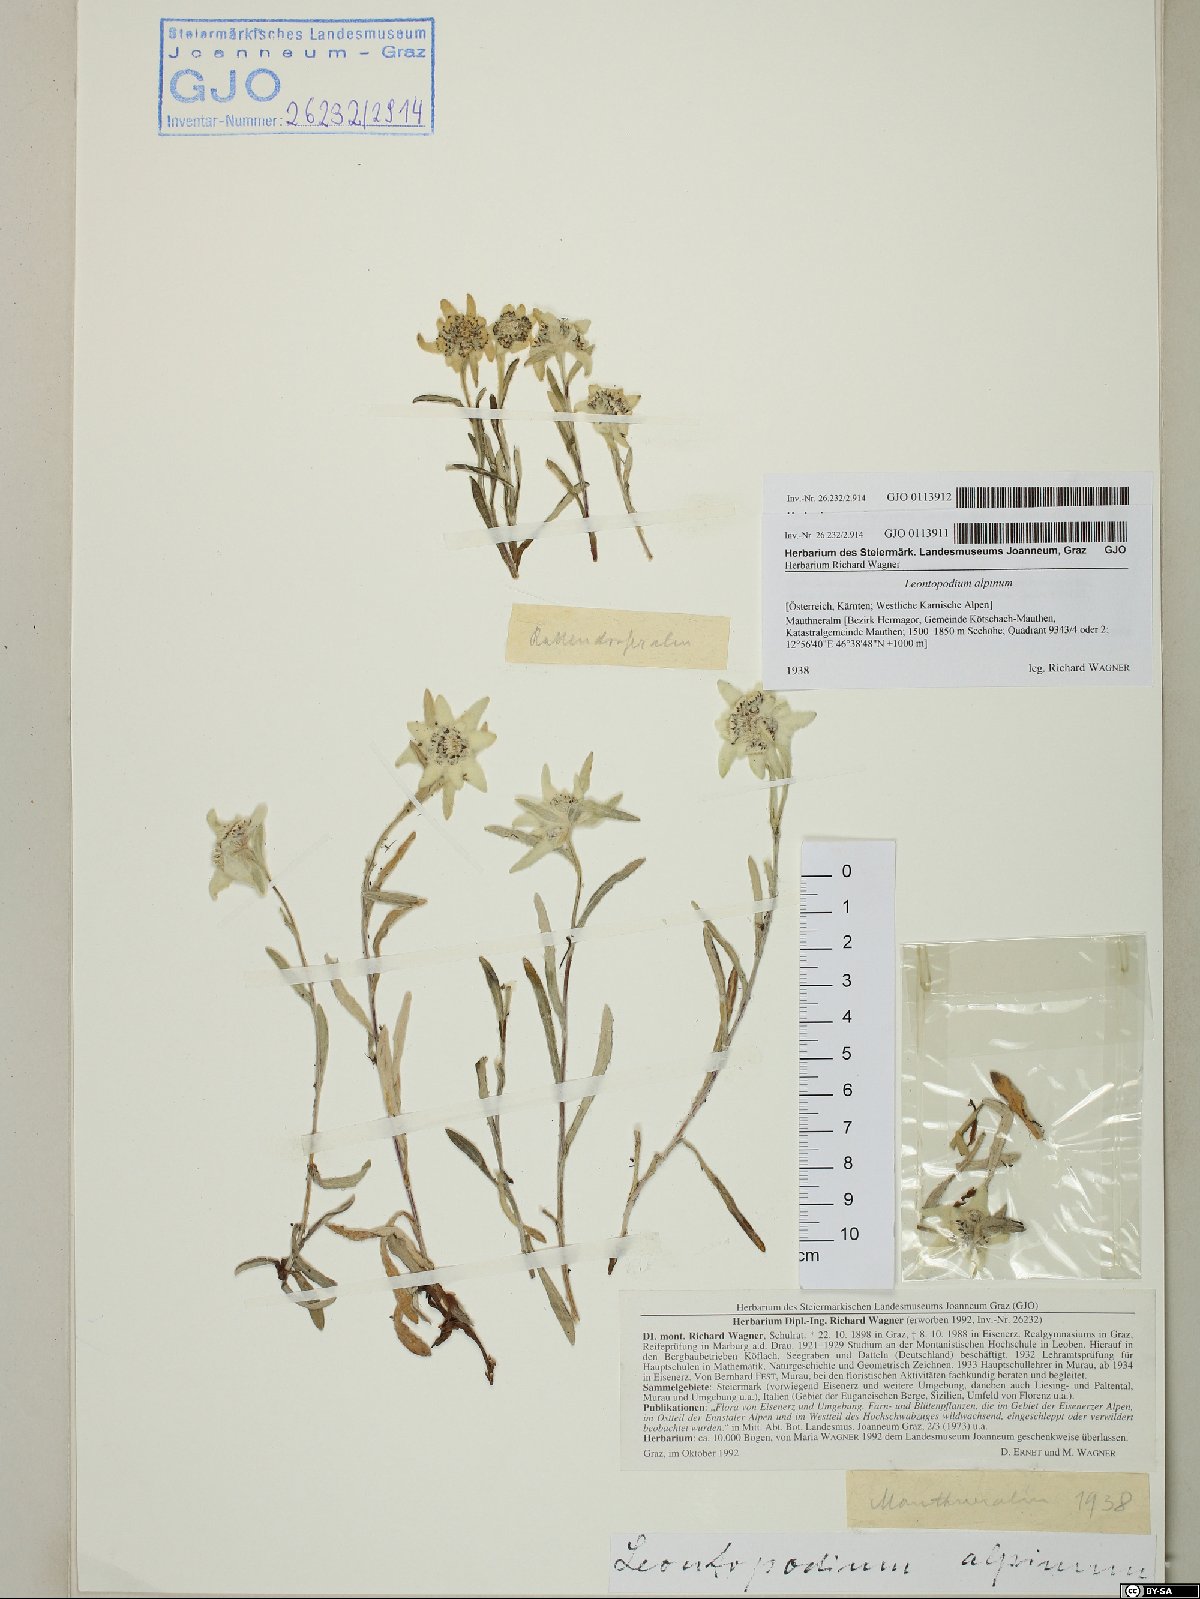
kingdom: Plantae
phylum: Tracheophyta
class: Magnoliopsida
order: Asterales
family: Asteraceae
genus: Leontopodium
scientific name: Leontopodium nivale
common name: Edelweiss
